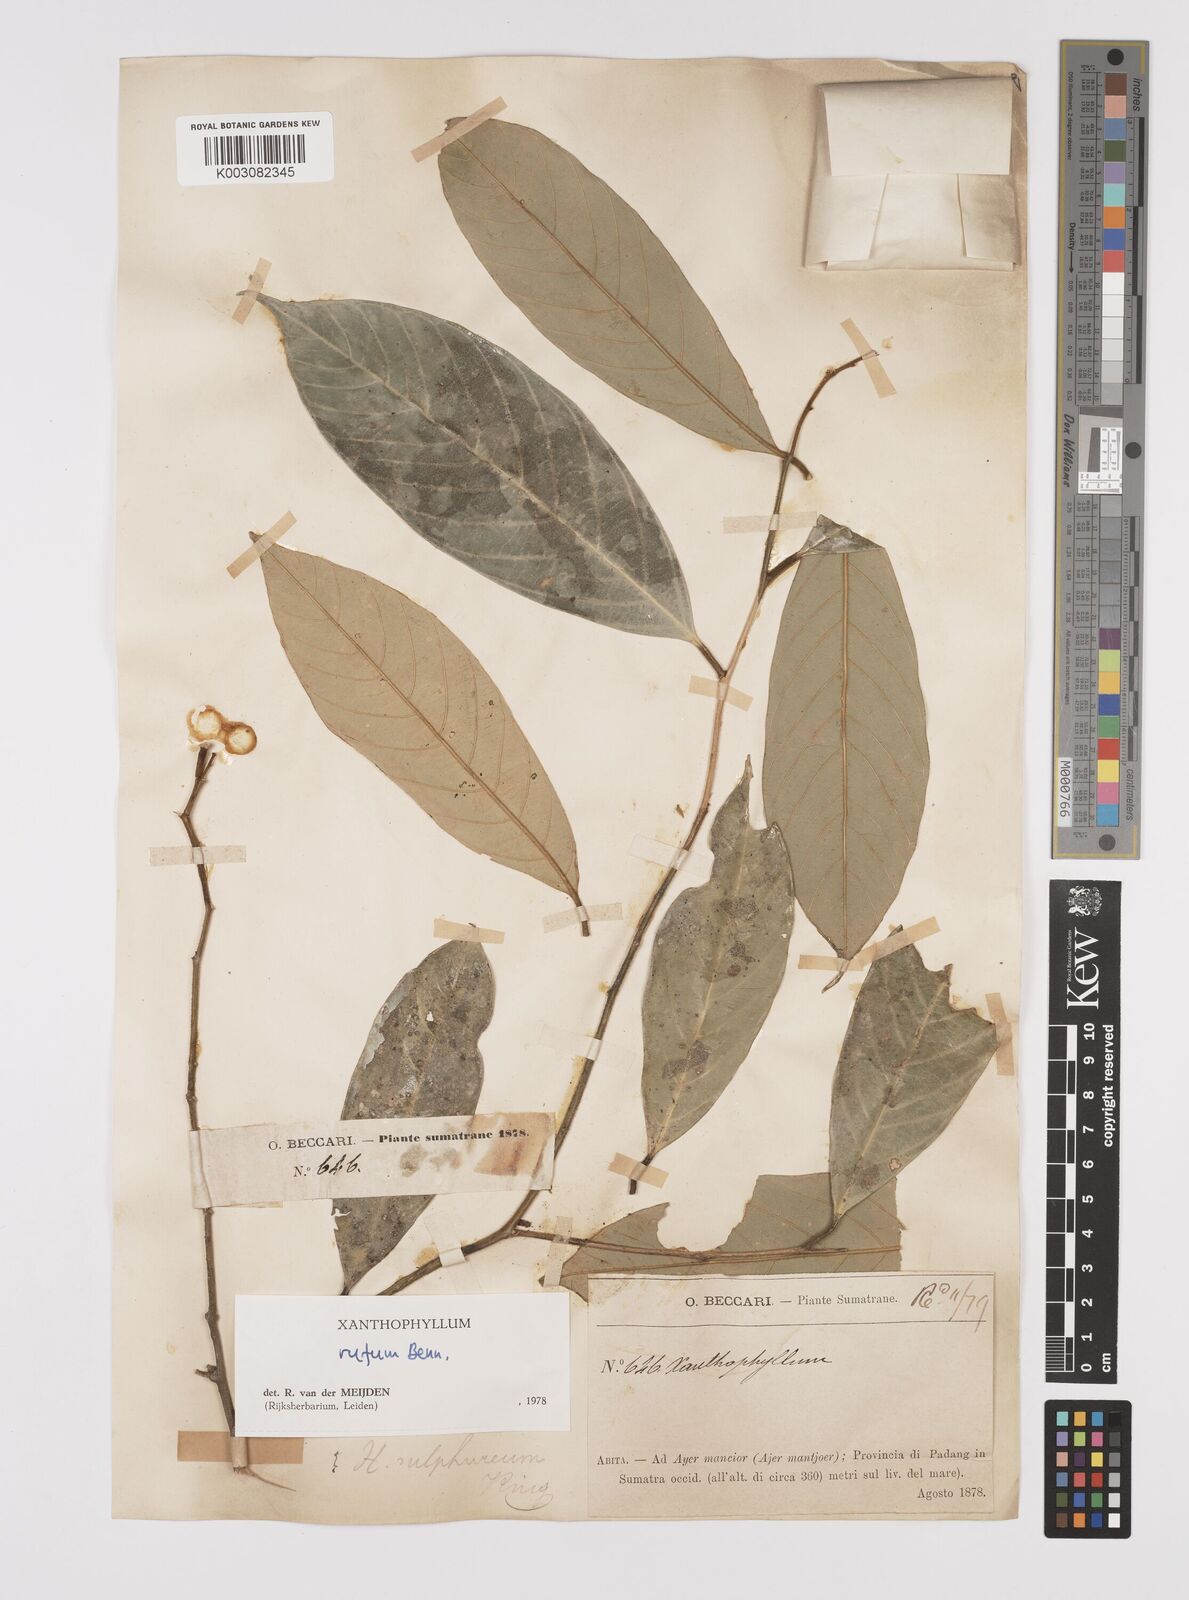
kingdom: Plantae
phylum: Tracheophyta
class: Magnoliopsida
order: Fabales
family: Polygalaceae
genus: Xanthophyllum
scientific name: Xanthophyllum rufum
